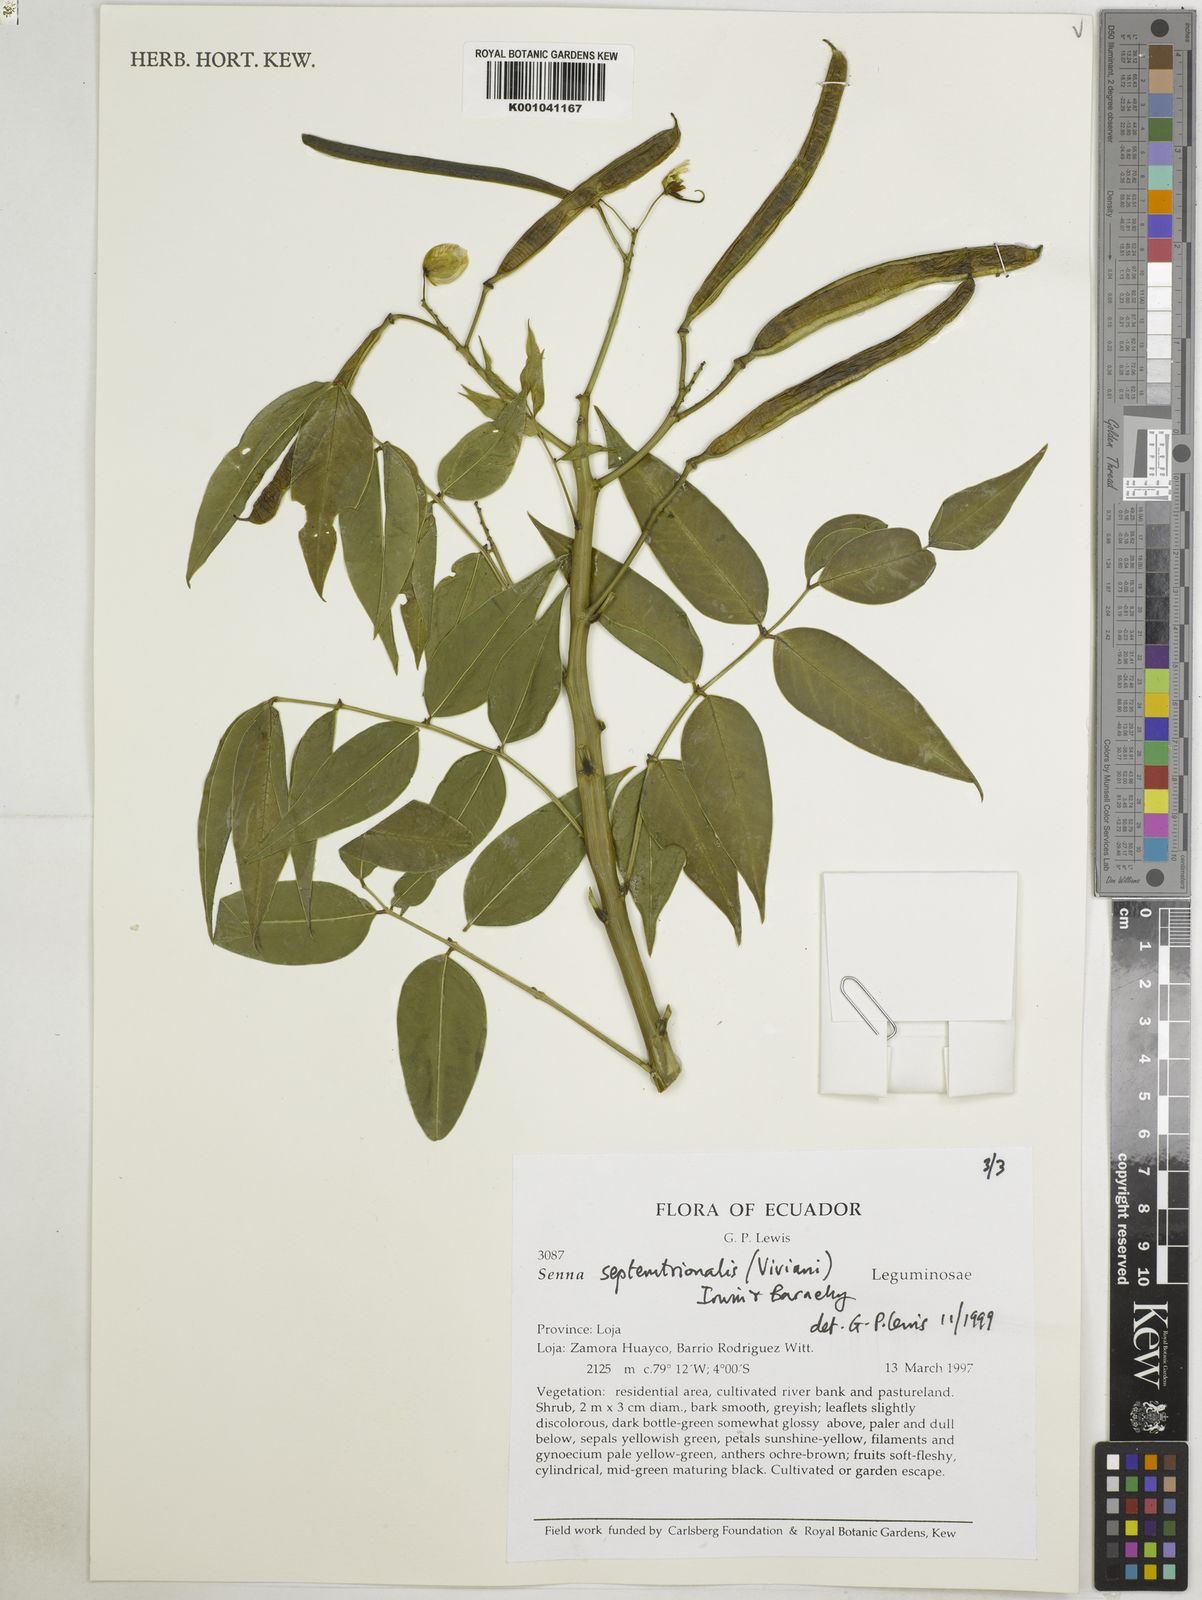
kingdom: Plantae
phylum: Tracheophyta
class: Magnoliopsida
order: Fabales
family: Fabaceae
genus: Senna
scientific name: Senna septemtrionalis
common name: Arsenic bush
